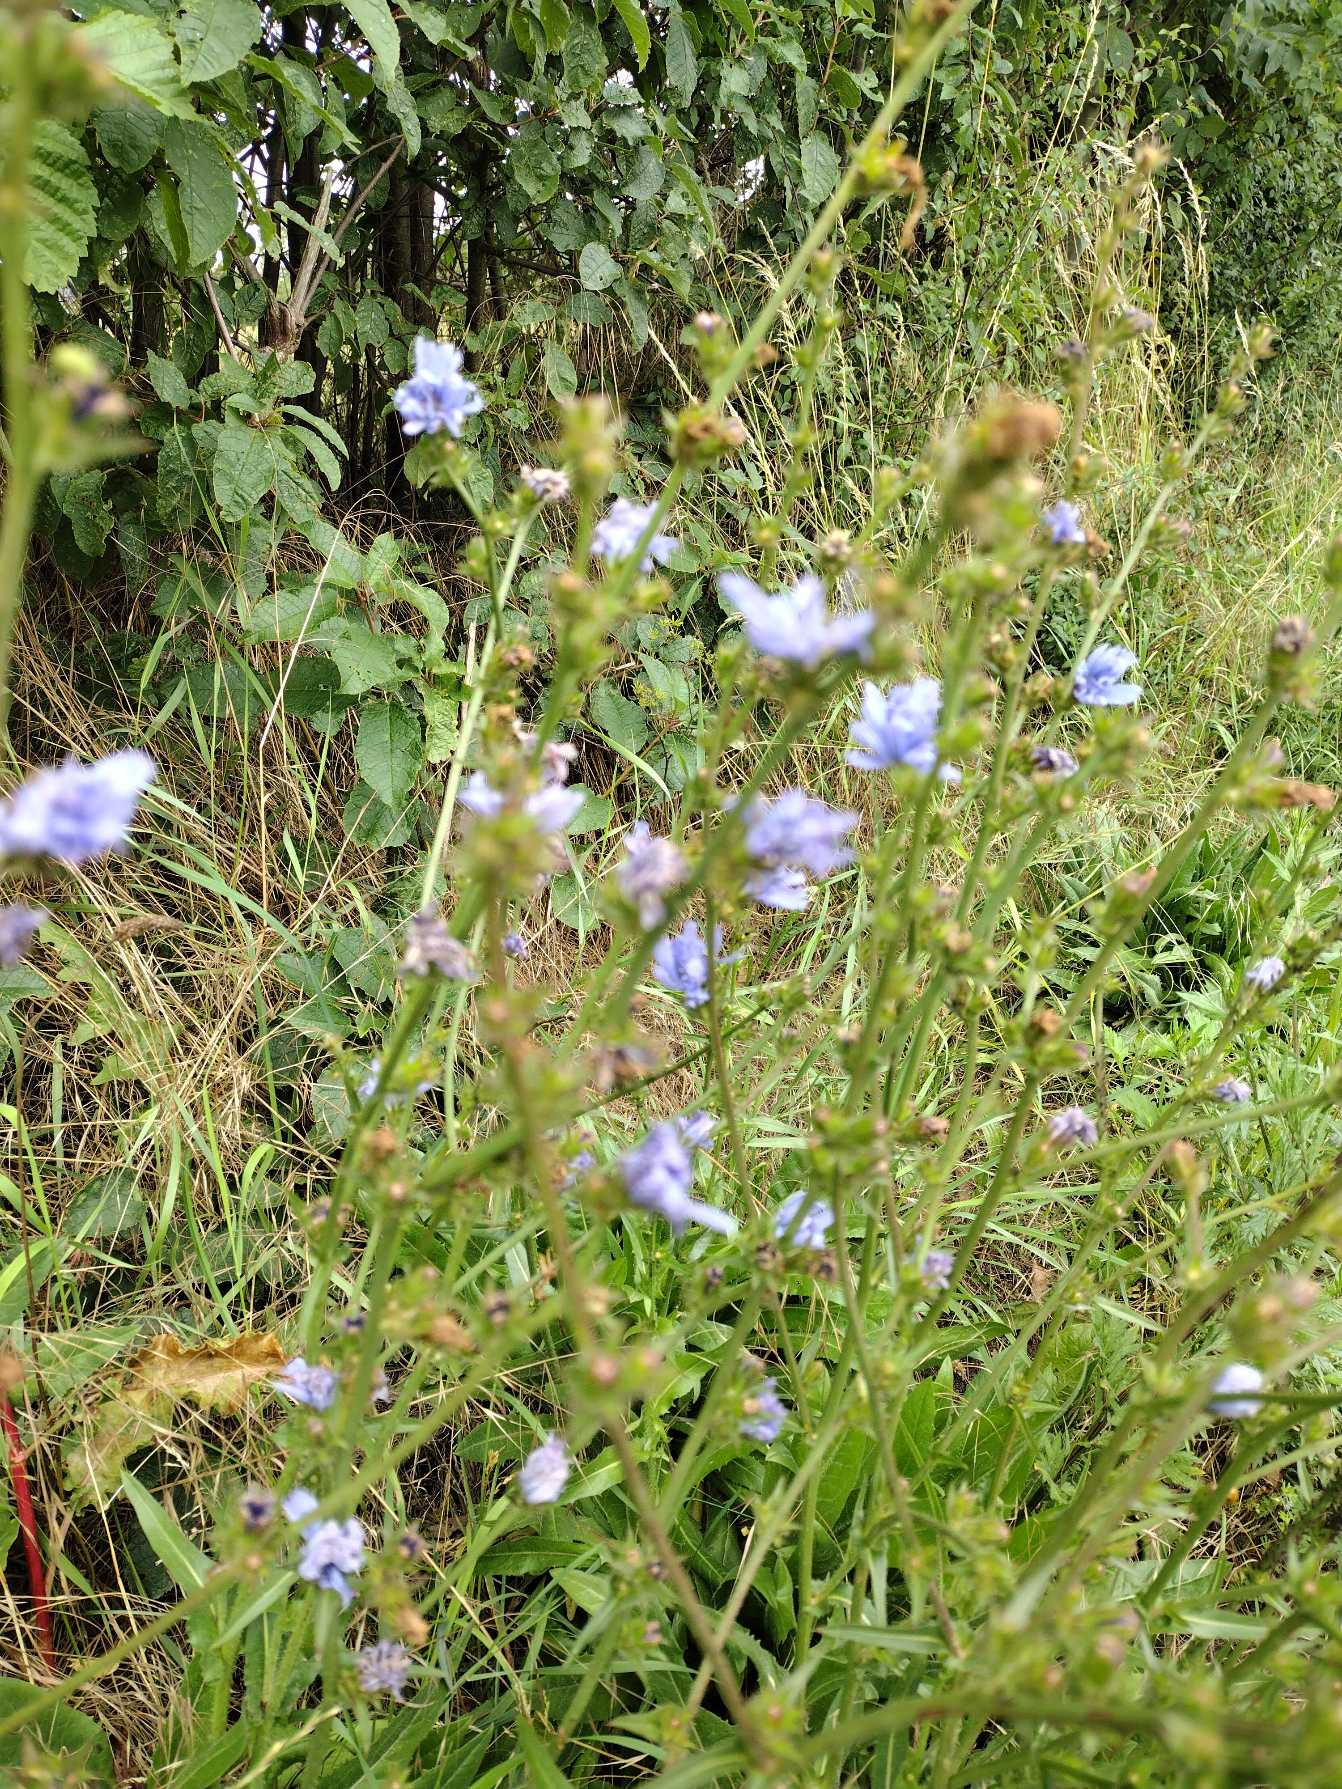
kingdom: Plantae
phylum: Tracheophyta
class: Magnoliopsida
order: Asterales
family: Asteraceae
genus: Cichorium
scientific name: Cichorium intybus
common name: Cikorie
